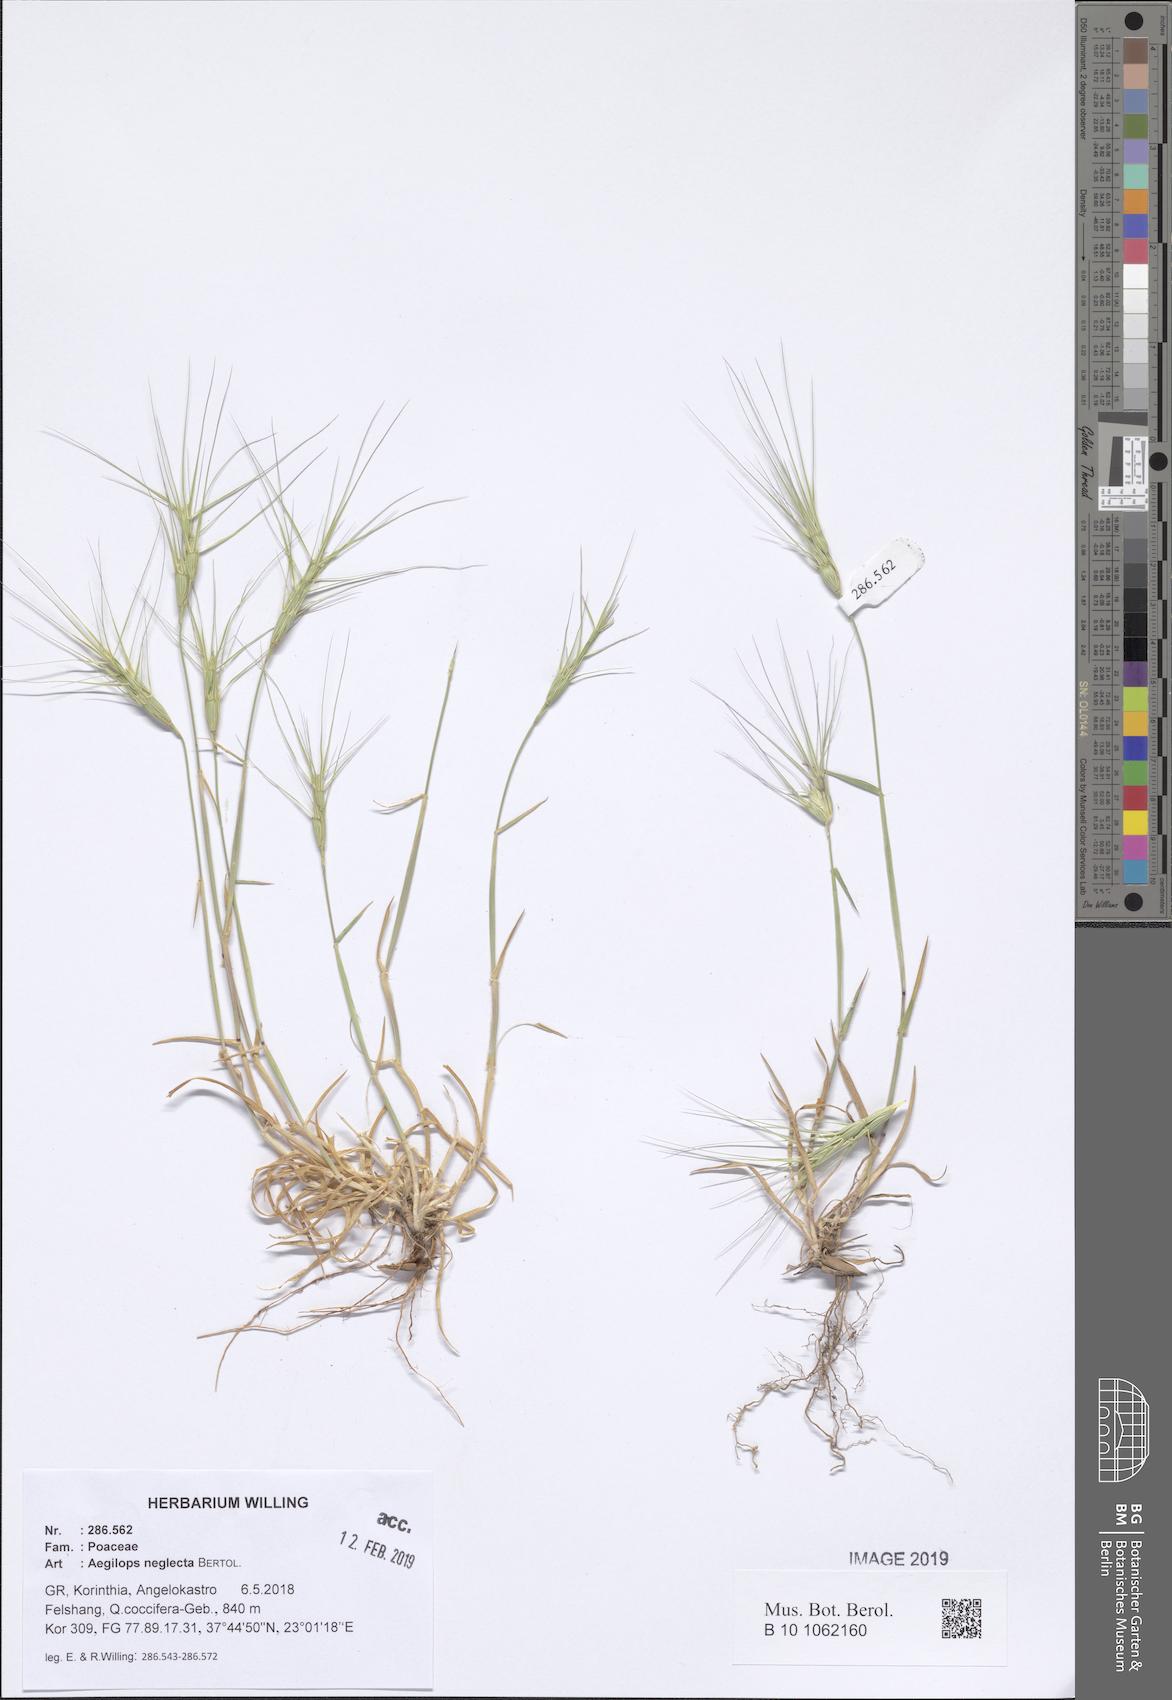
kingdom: Plantae
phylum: Tracheophyta
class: Liliopsida
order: Poales
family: Poaceae
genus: Aegilops
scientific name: Aegilops neglecta
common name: Three-awn goat grass
